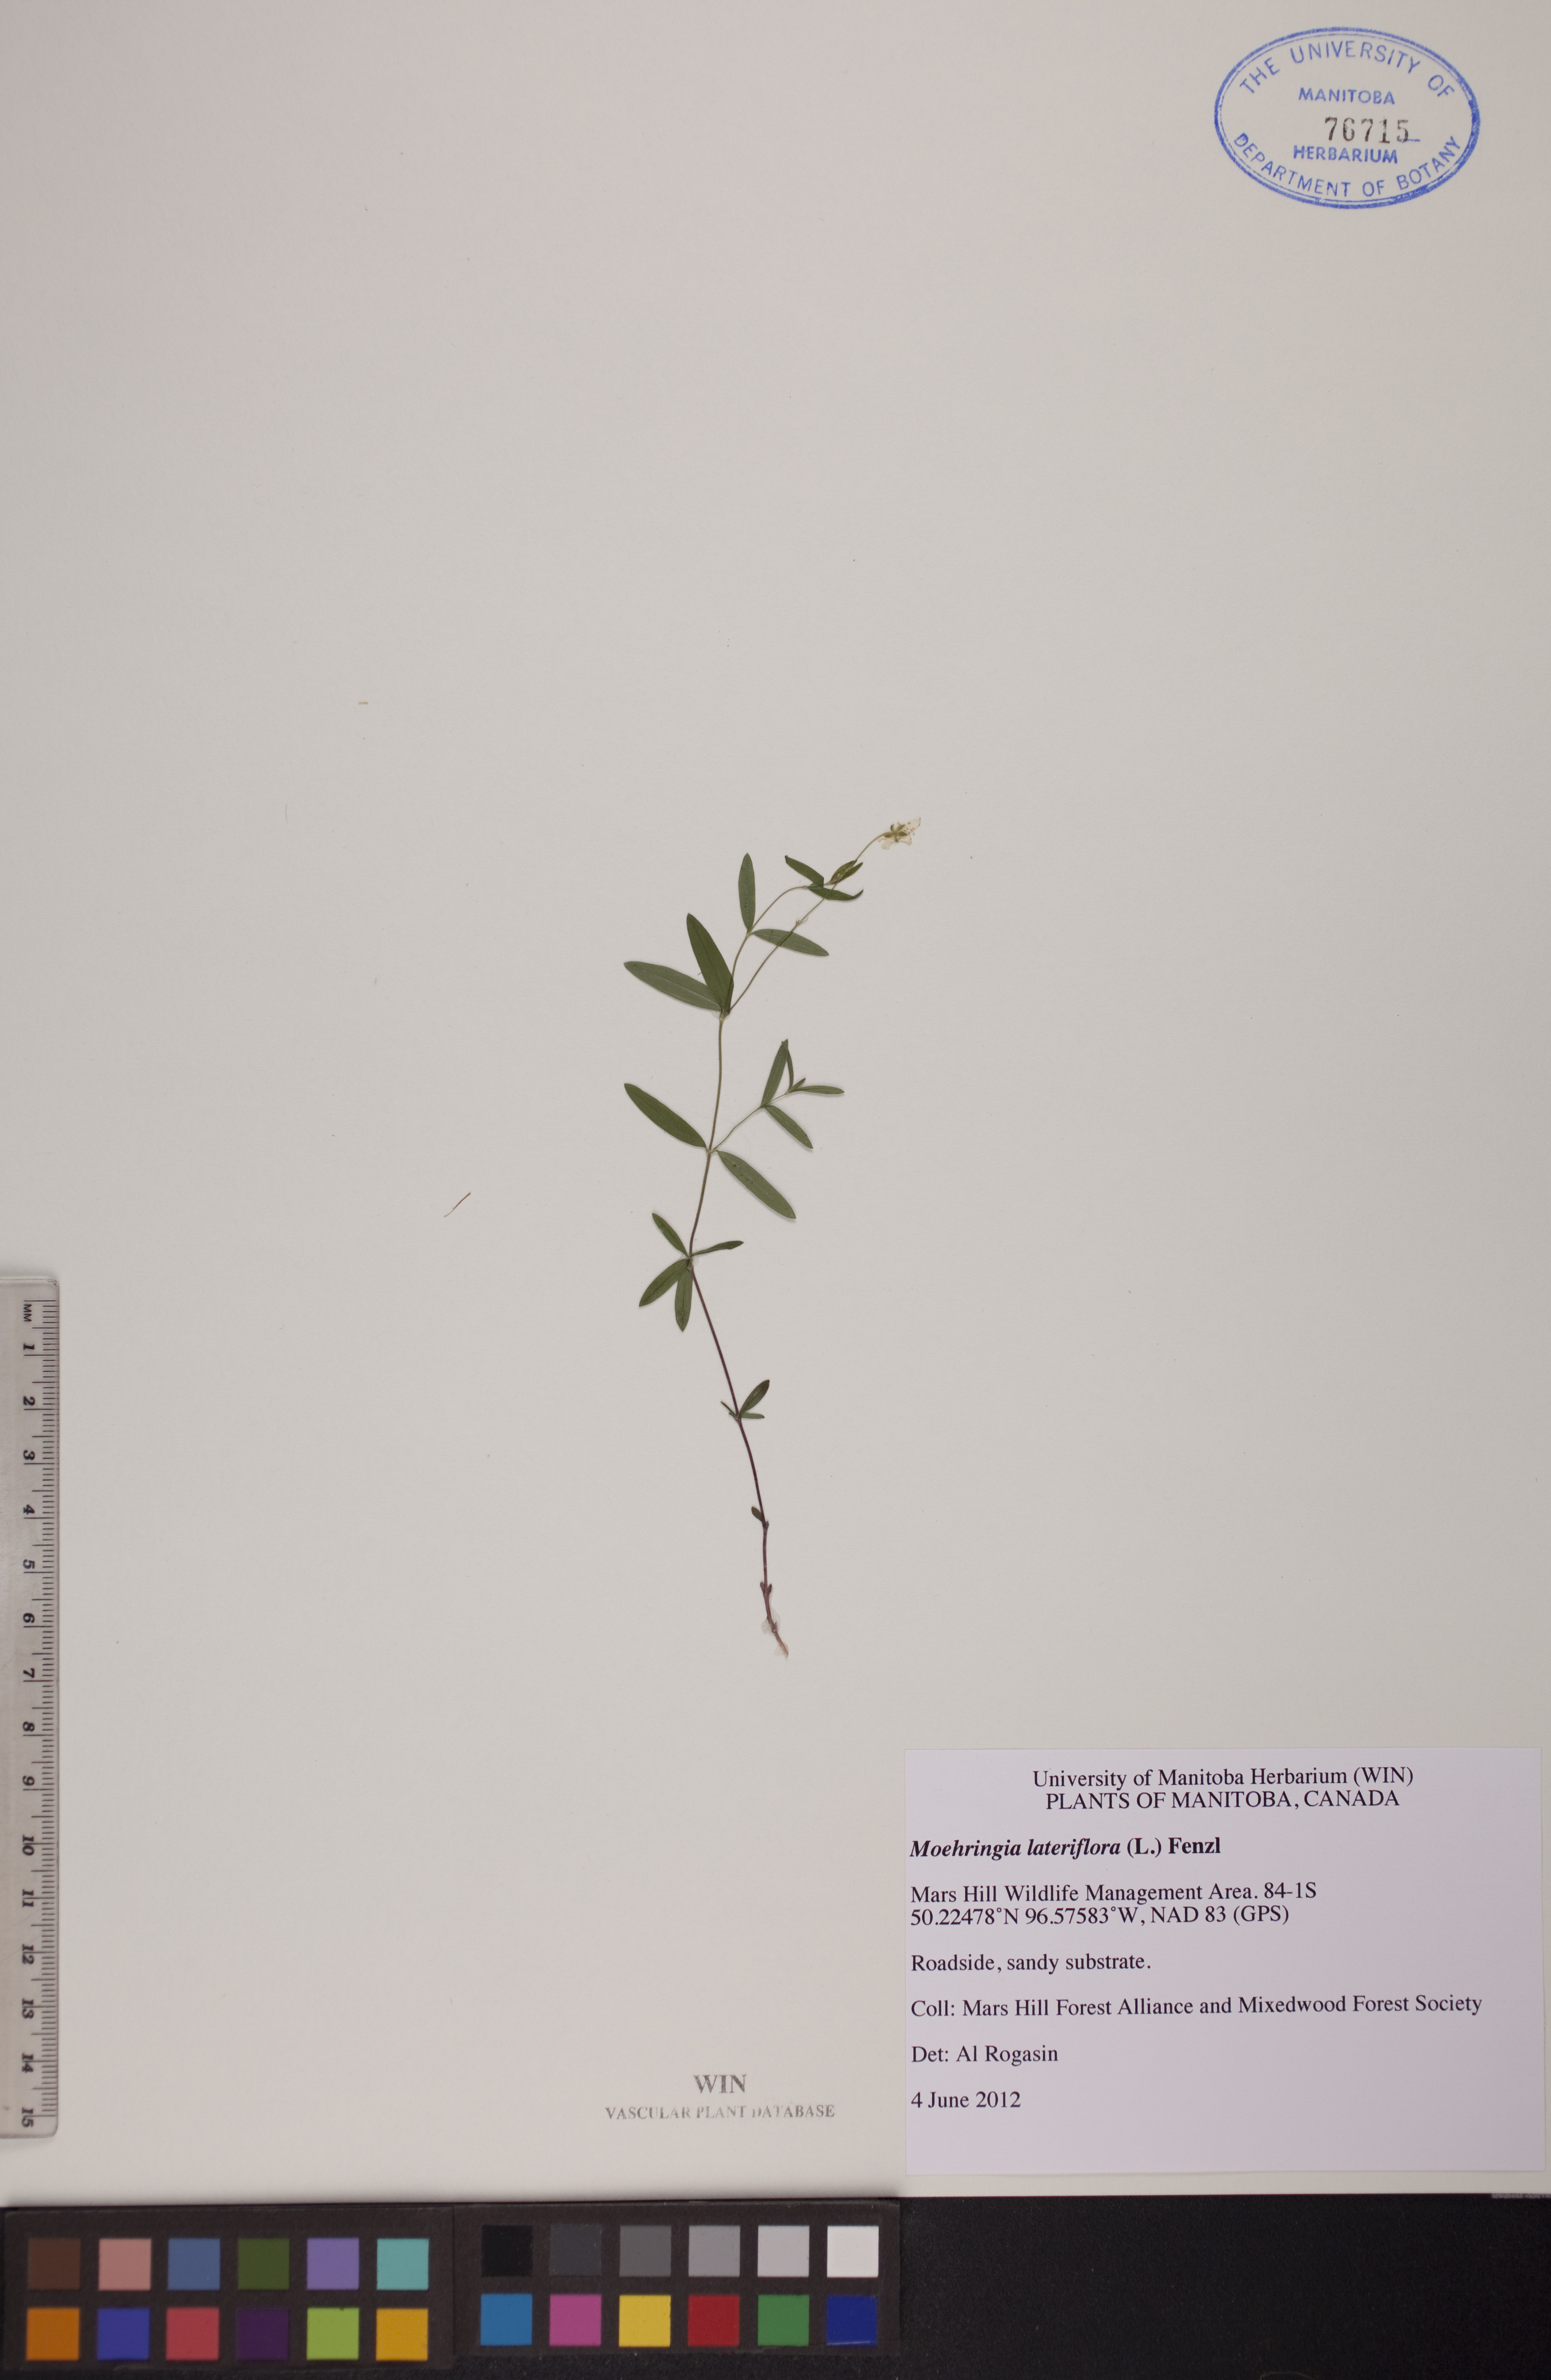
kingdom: Plantae
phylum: Tracheophyta
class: Magnoliopsida
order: Caryophyllales
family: Caryophyllaceae
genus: Moehringia
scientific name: Moehringia lateriflora
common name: Blunt-leaved sandwort
